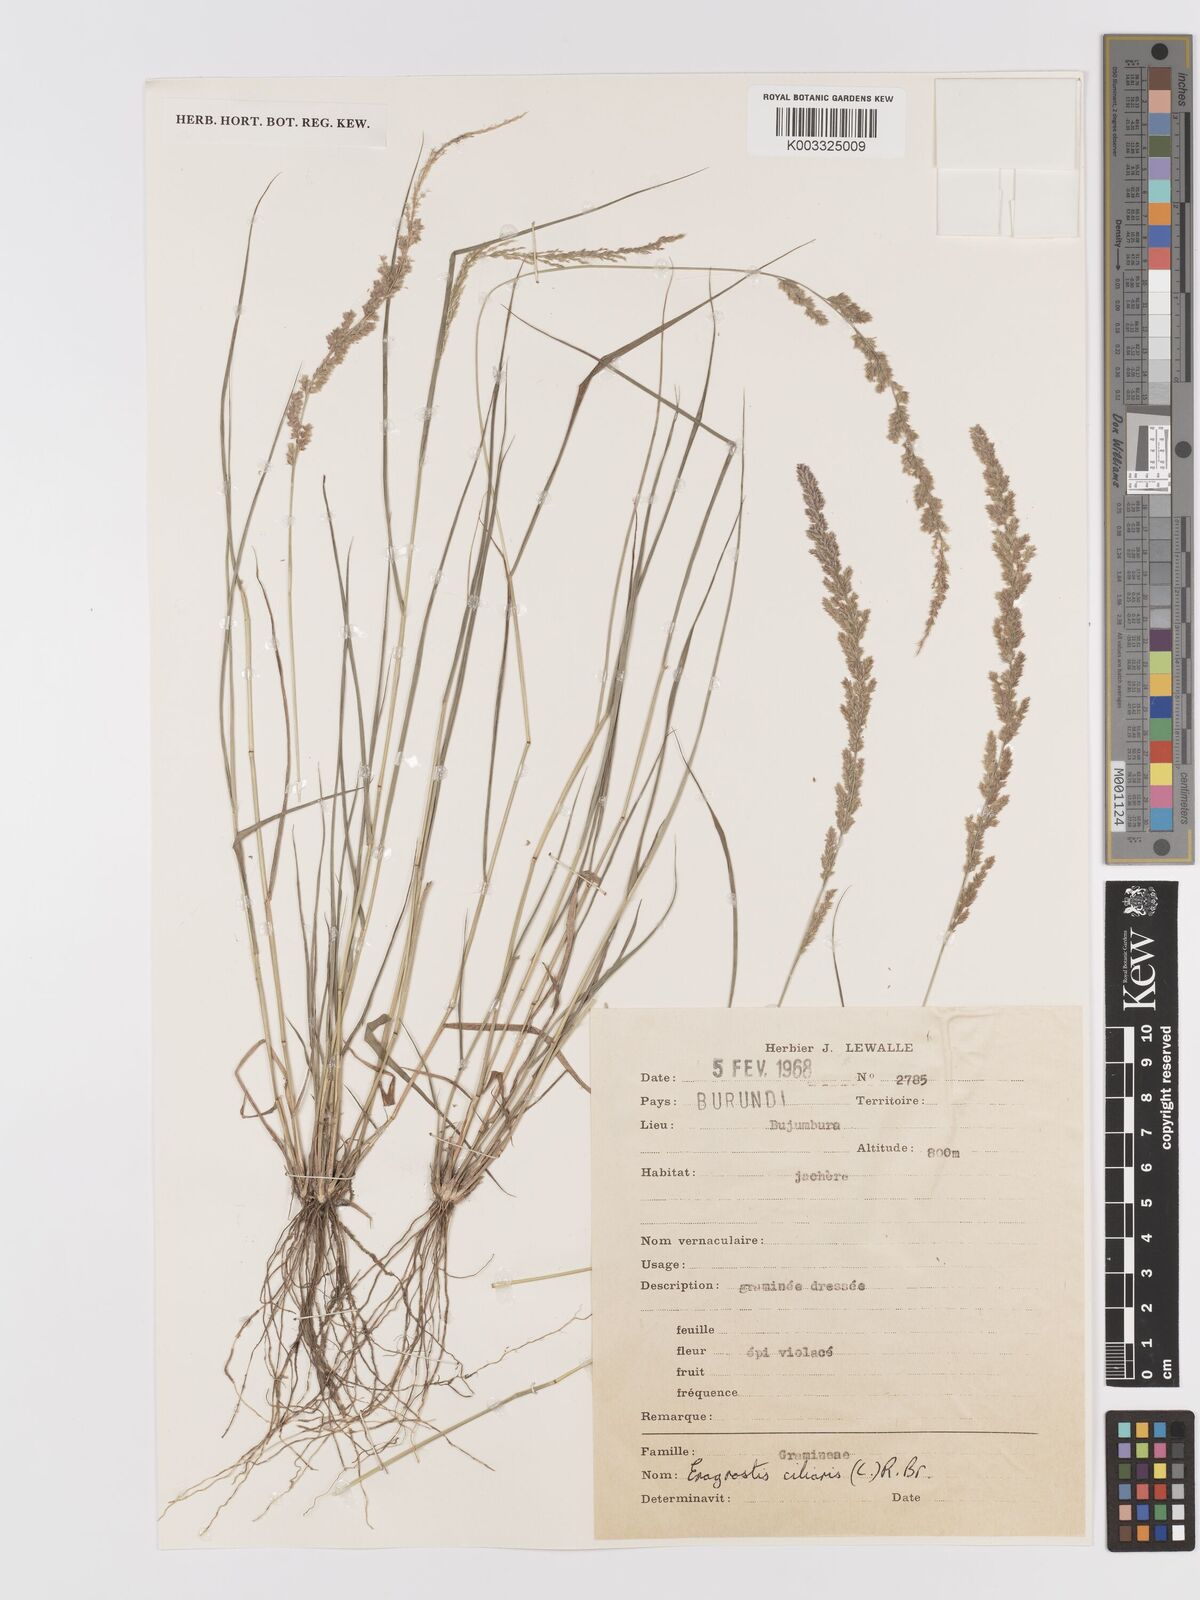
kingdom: Plantae
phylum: Tracheophyta
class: Liliopsida
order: Poales
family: Poaceae
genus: Eragrostis
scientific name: Eragrostis ciliaris
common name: Gophertail lovegrass
